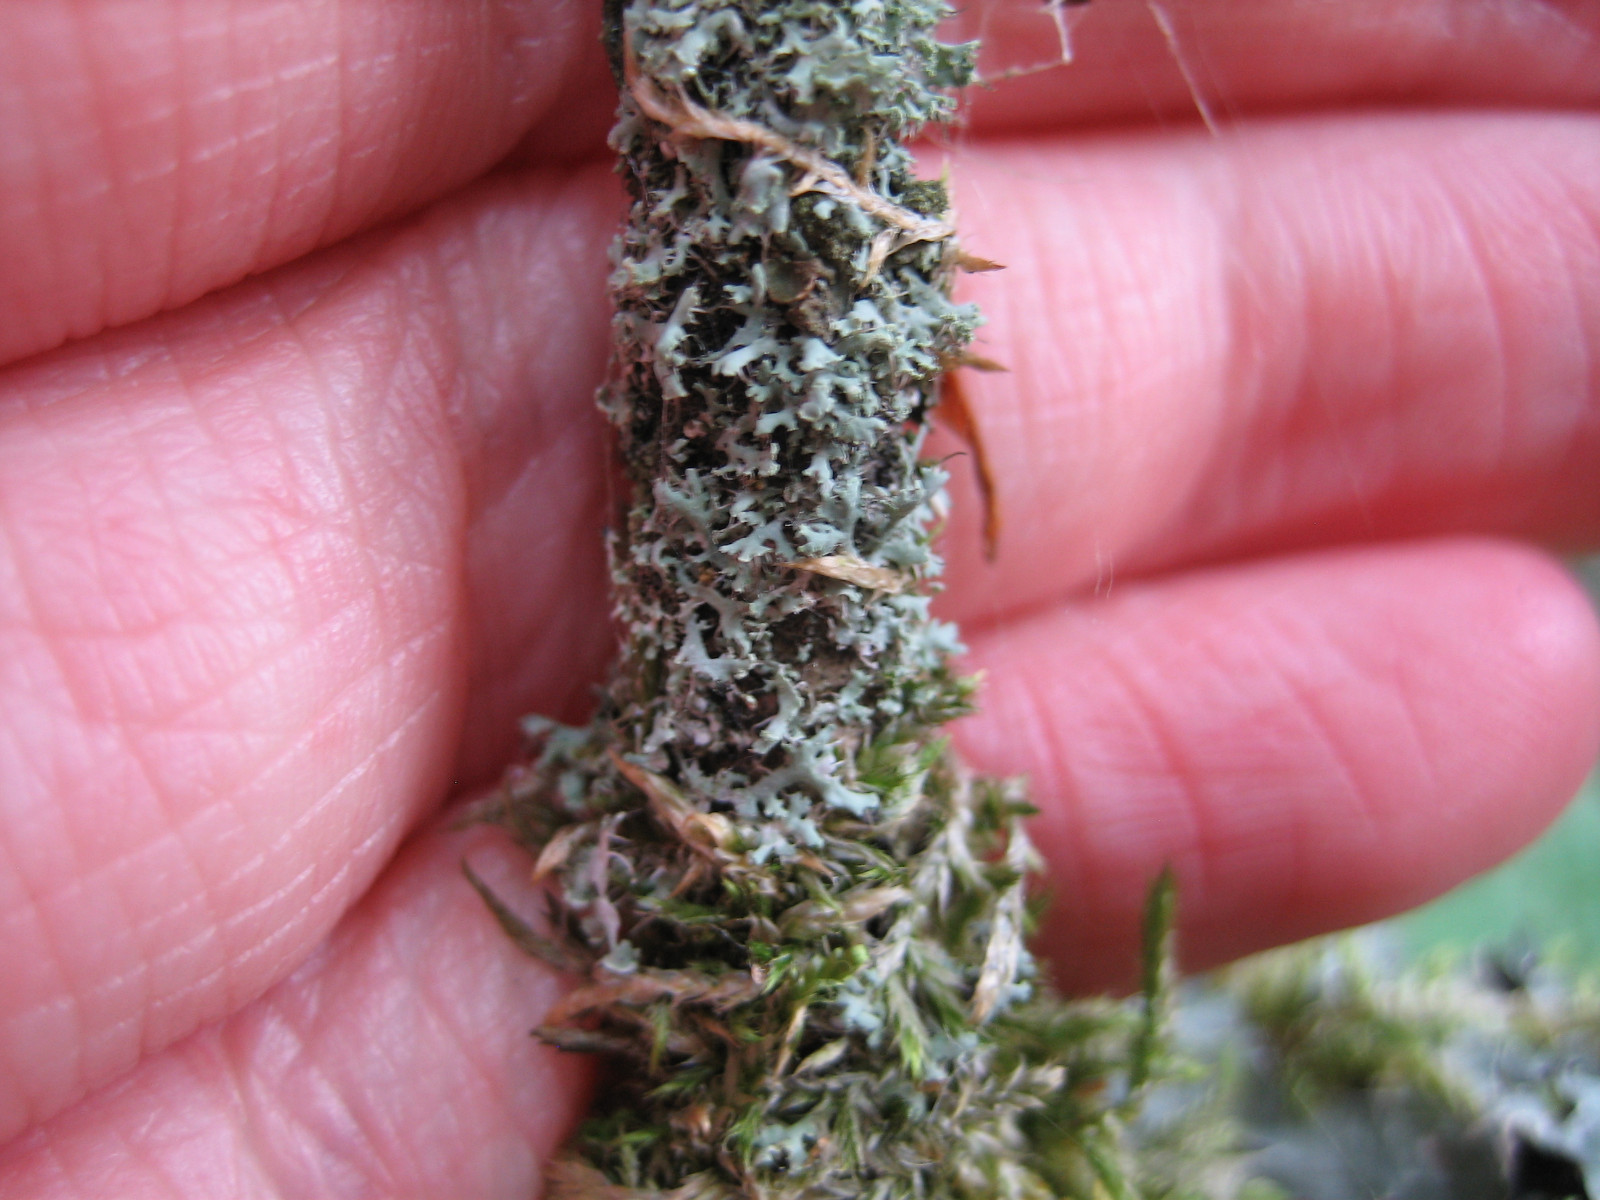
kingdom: Fungi
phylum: Ascomycota
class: Lecanoromycetes
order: Caliciales
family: Physciaceae
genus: Physcia
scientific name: Physcia tenella
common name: spæd rosetlav
